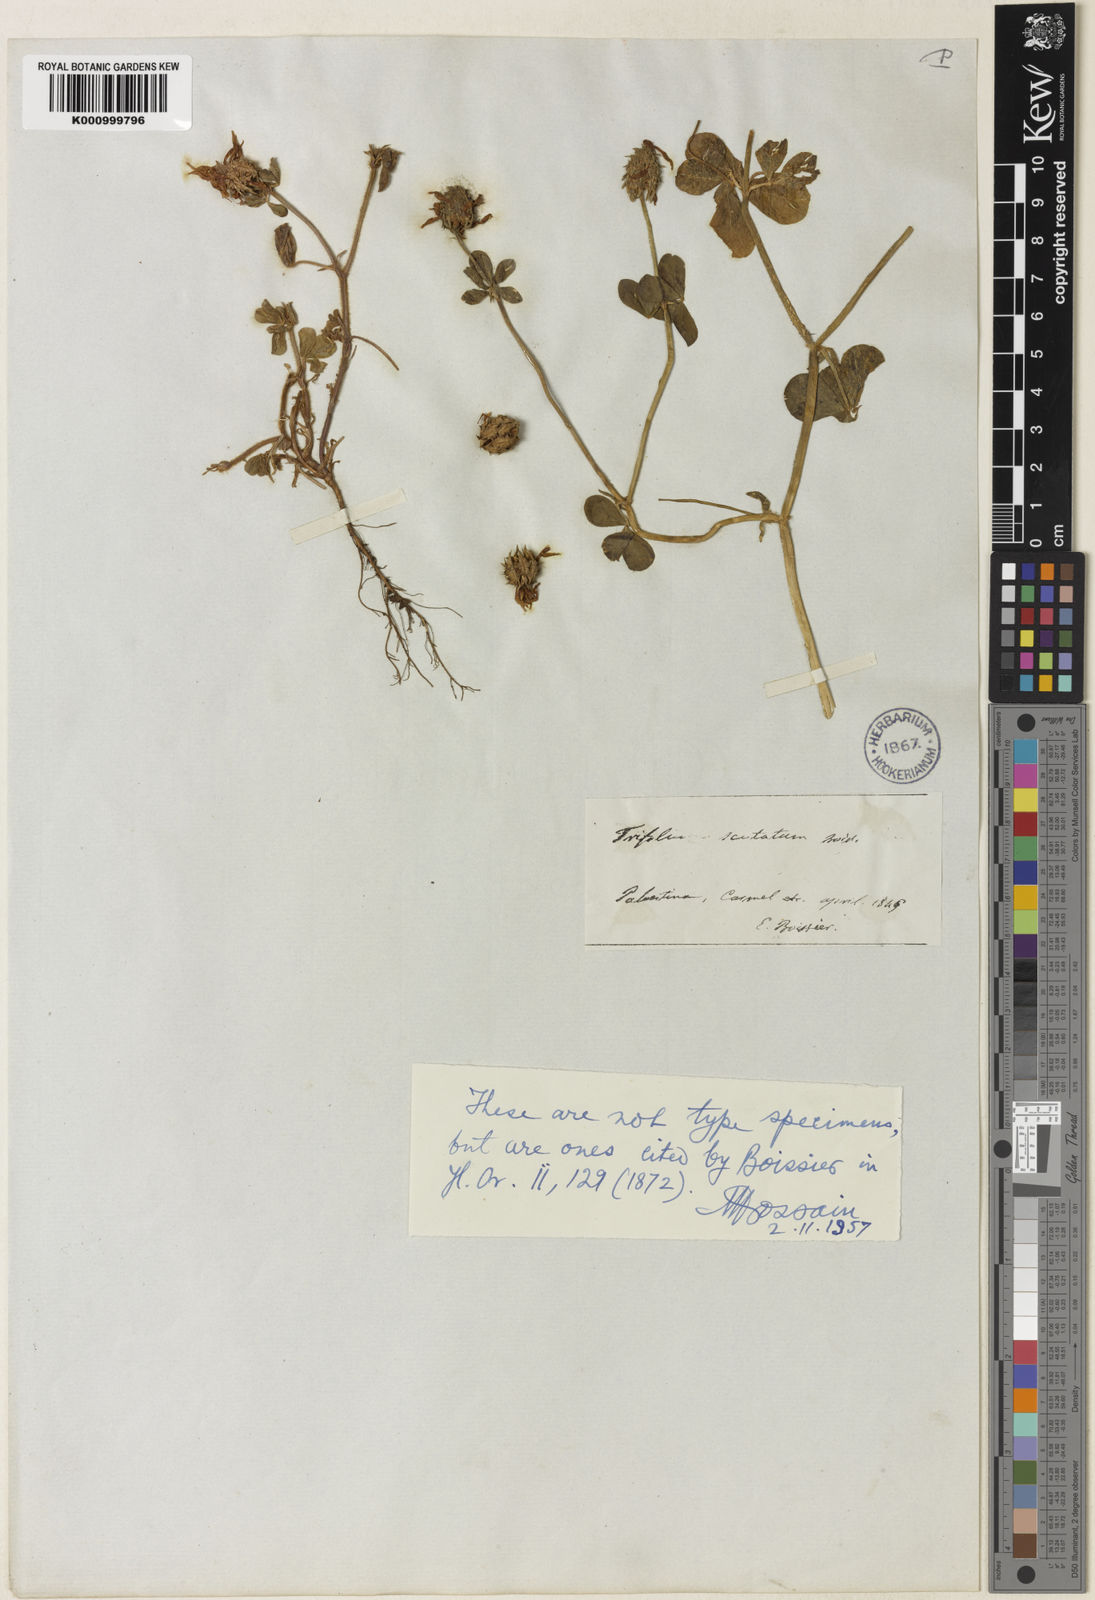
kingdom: Plantae
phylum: Tracheophyta
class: Magnoliopsida
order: Fabales
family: Fabaceae
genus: Trifolium
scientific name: Trifolium scutatum
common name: Shield clover
